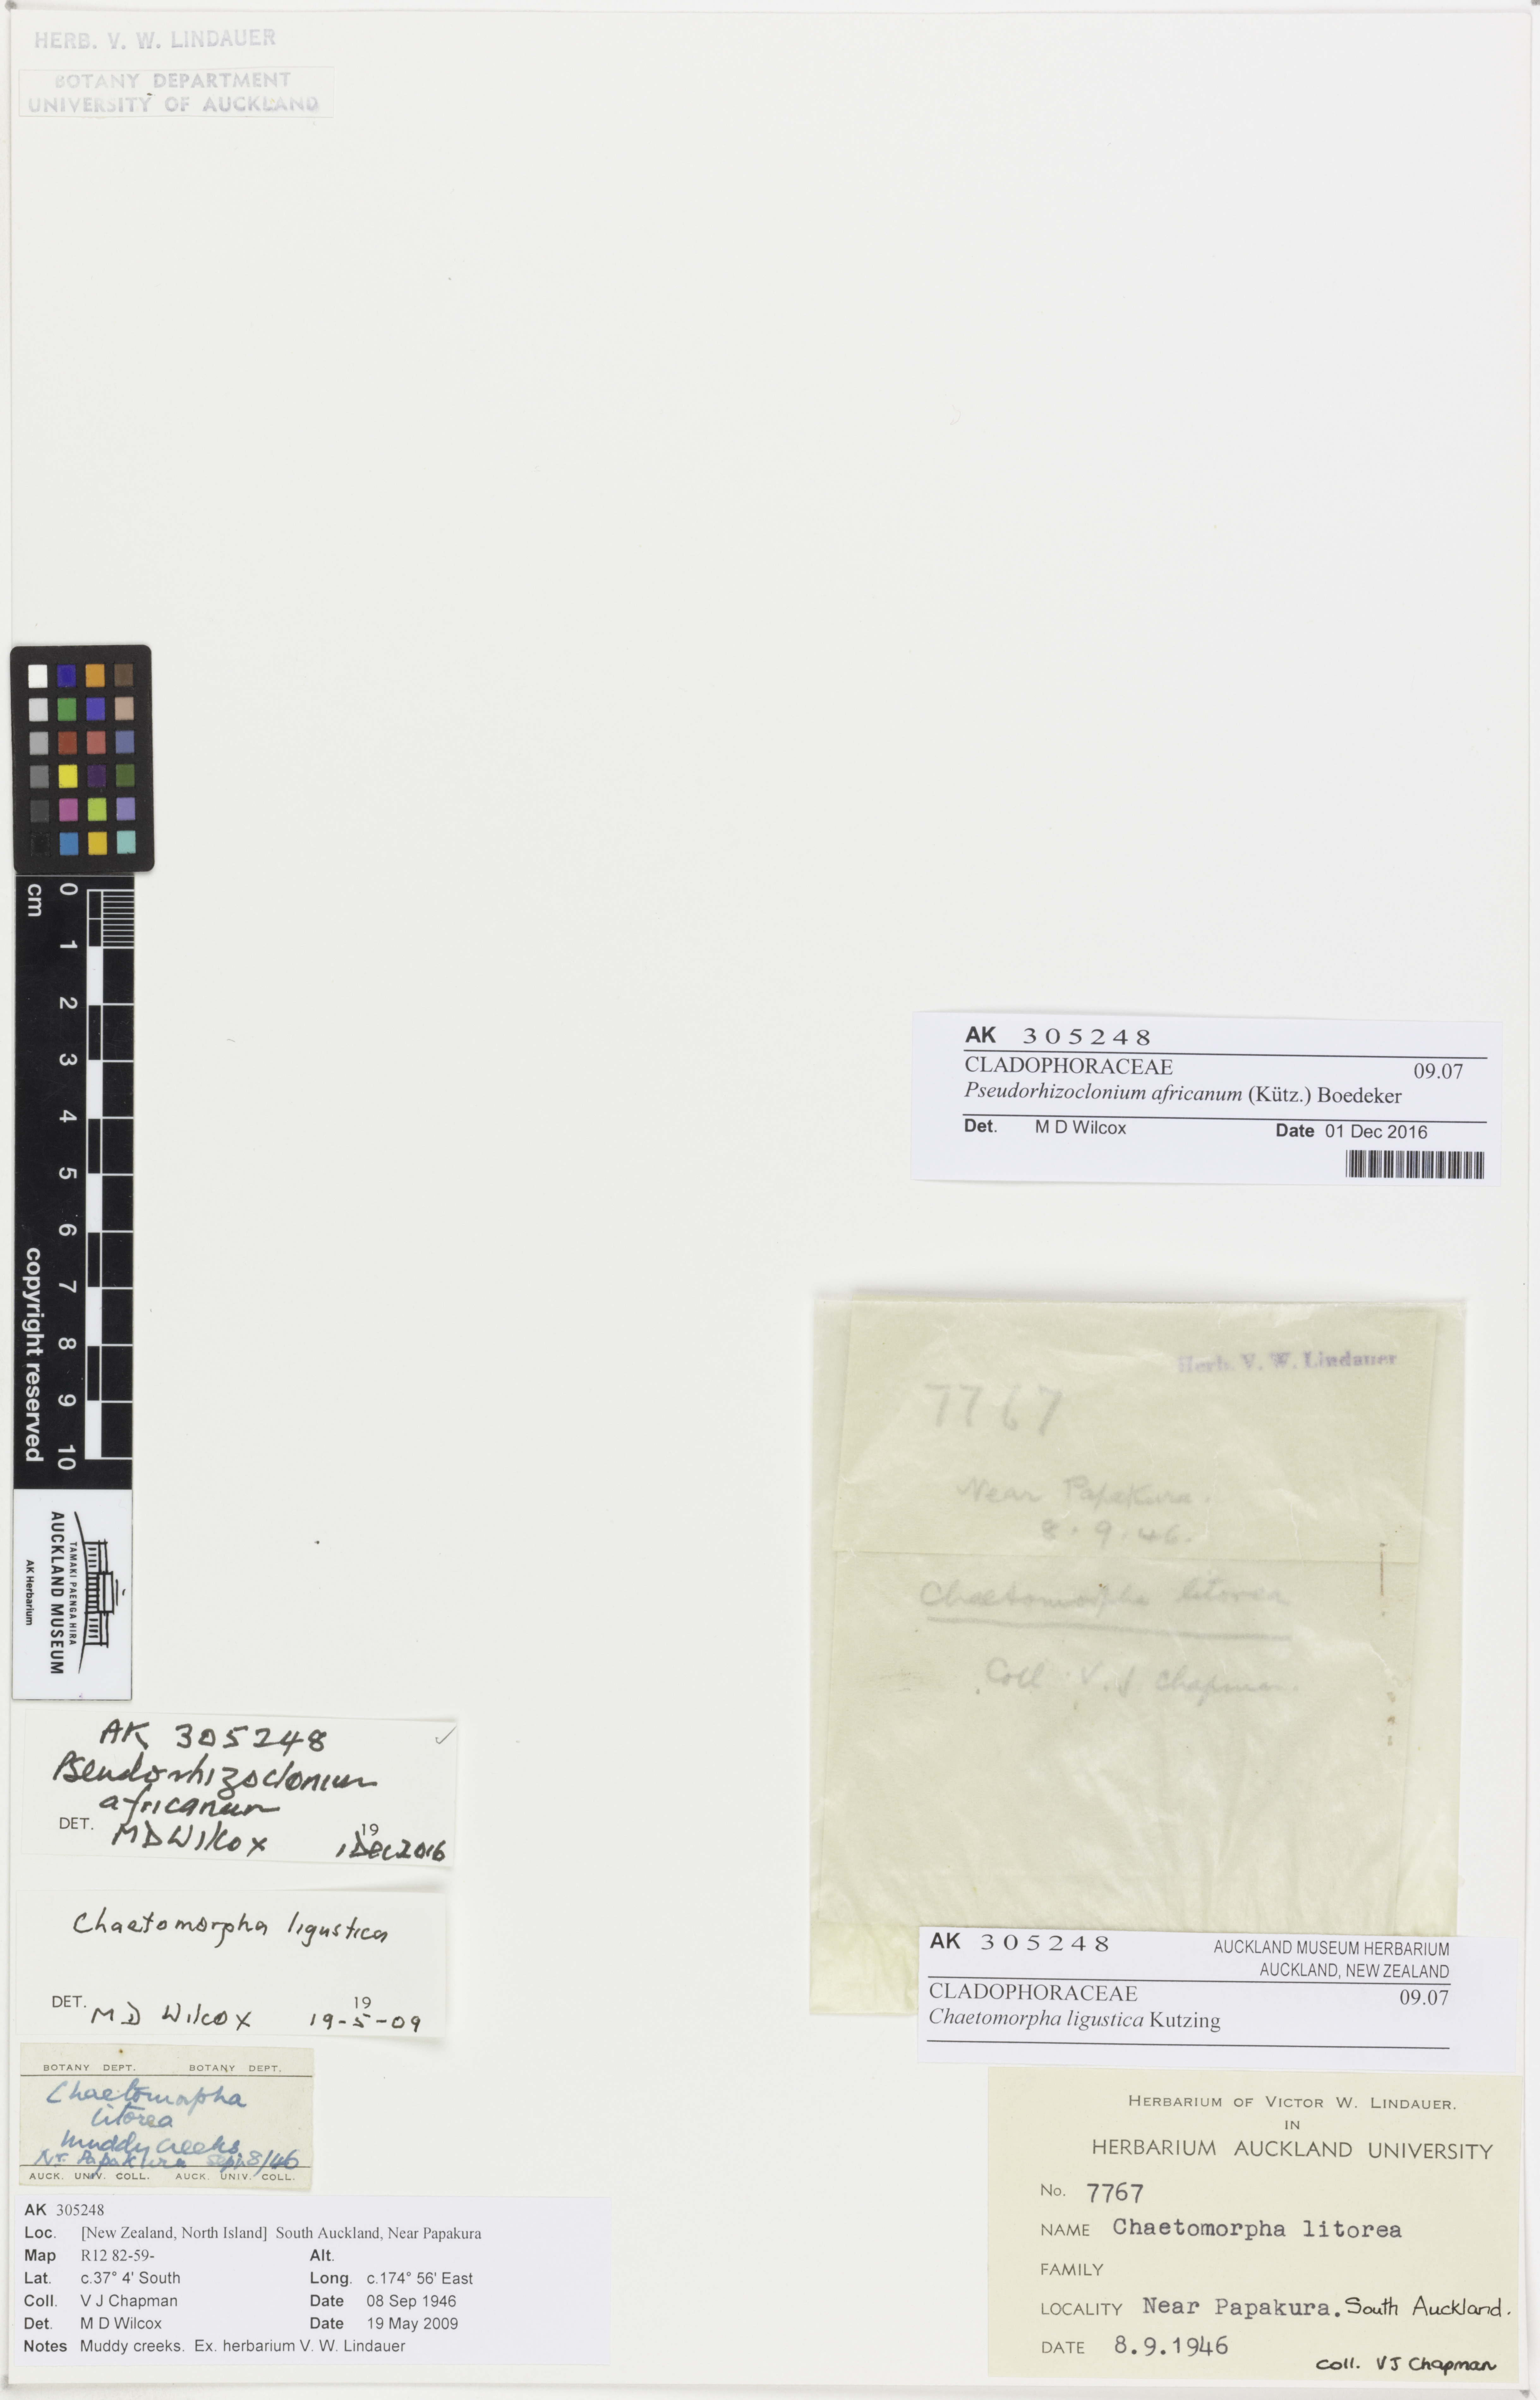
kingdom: Plantae
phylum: Chlorophyta
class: Ulvophyceae
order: Cladophorales
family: Cladophoraceae
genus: Pseudorhizoclonium
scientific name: Pseudorhizoclonium
